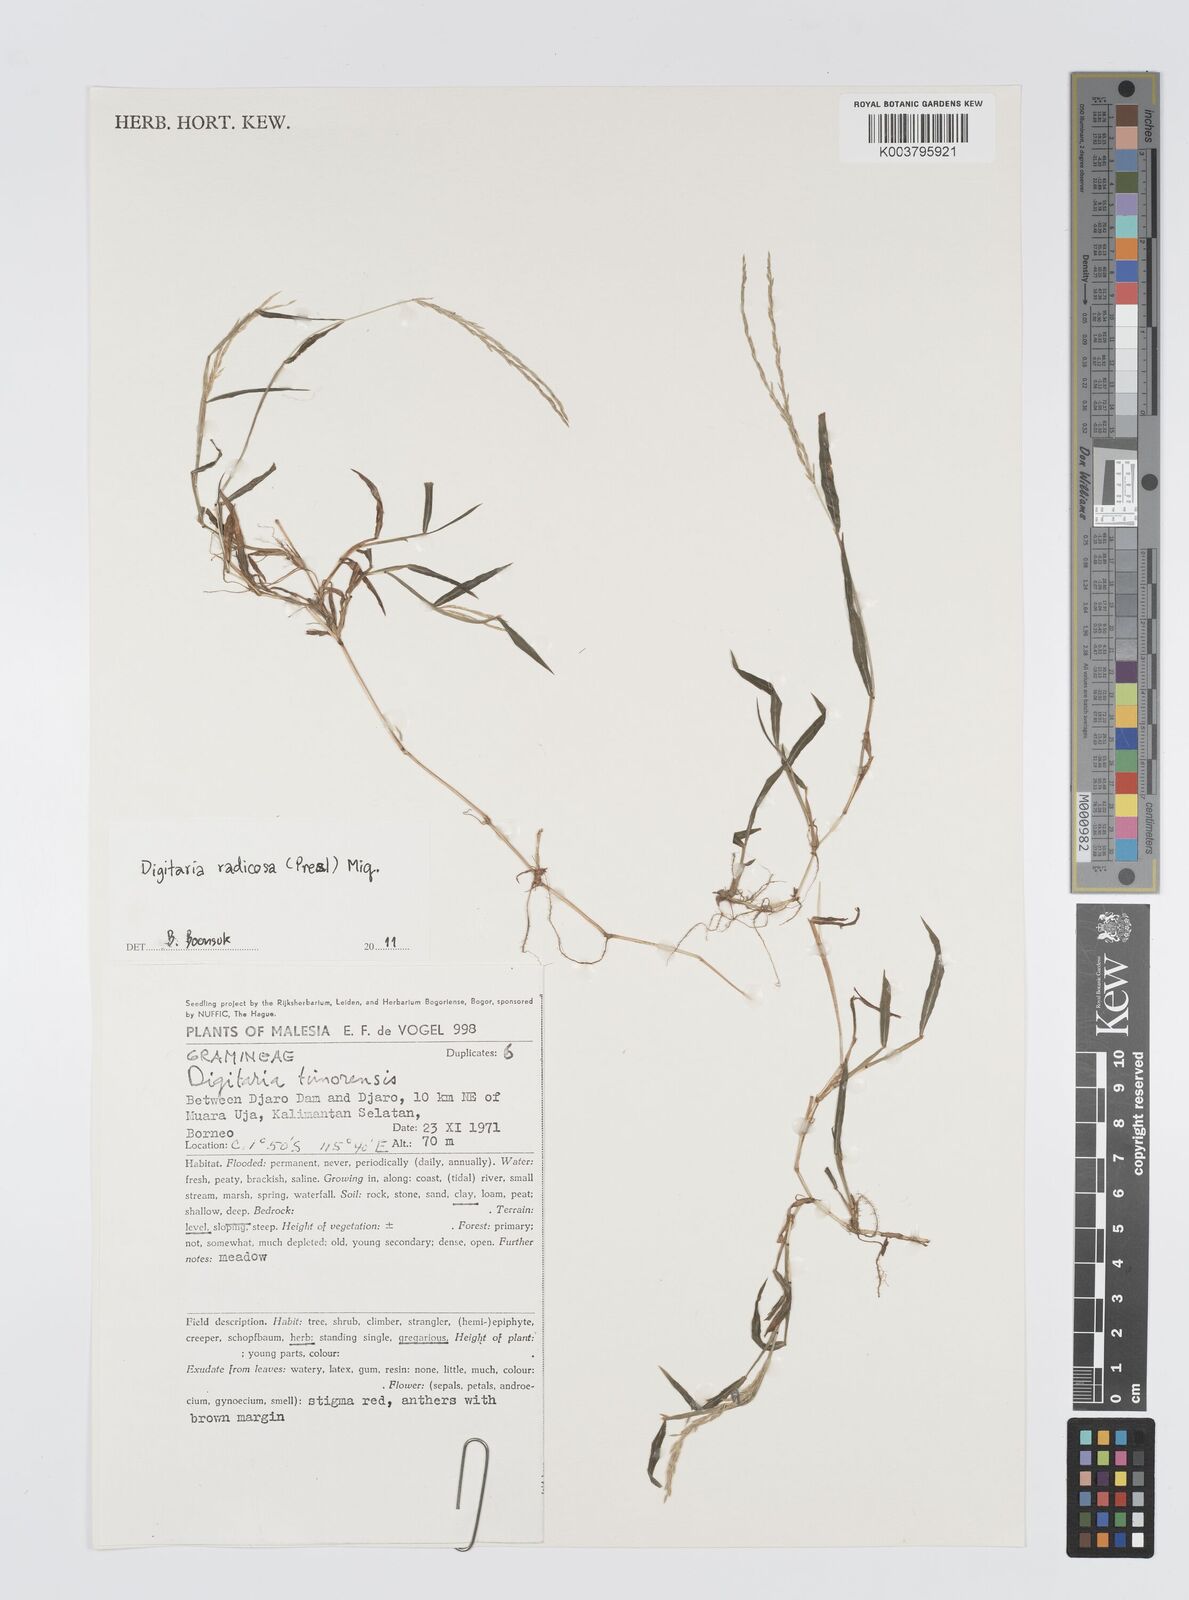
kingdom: Plantae
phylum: Tracheophyta
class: Liliopsida
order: Poales
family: Poaceae
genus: Digitaria
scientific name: Digitaria radicosa
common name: Trailing crabgrass
